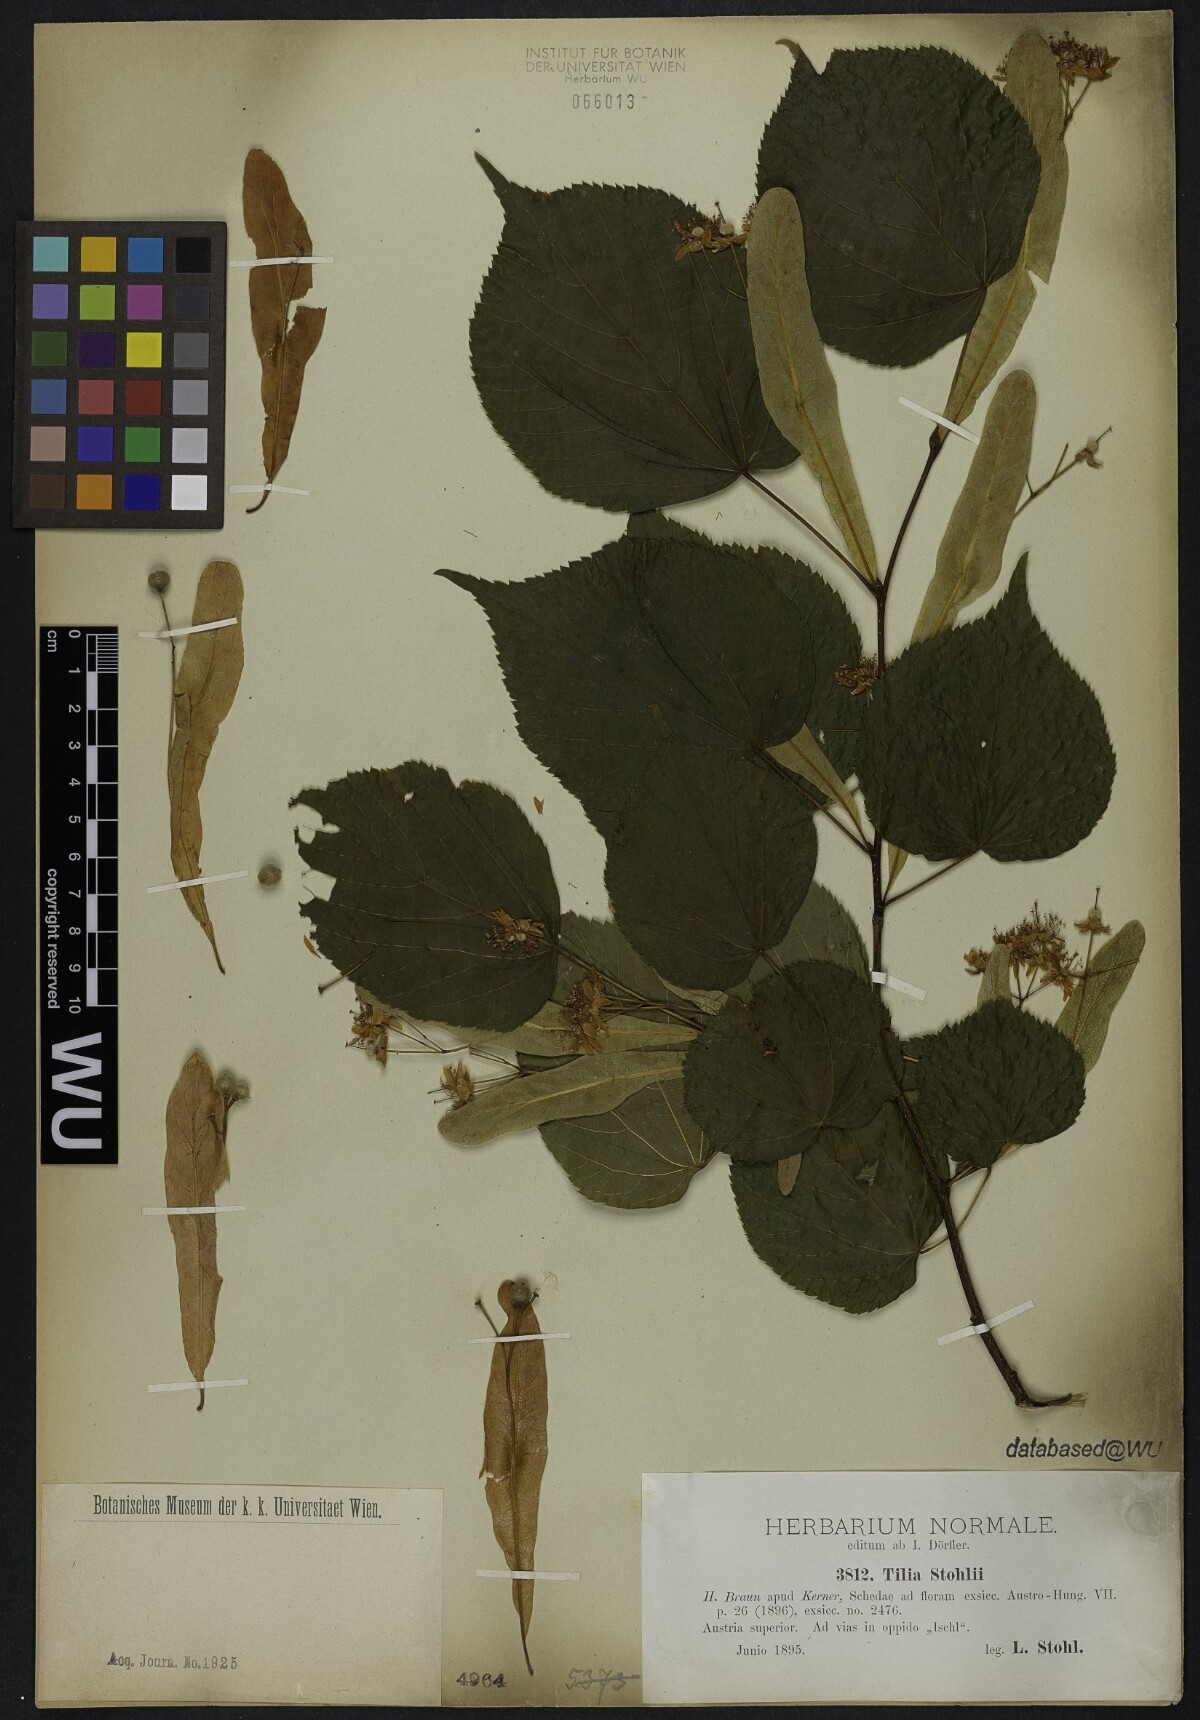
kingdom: Plantae
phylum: Tracheophyta
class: Magnoliopsida
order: Malvales
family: Malvaceae
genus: Tilia
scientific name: Tilia stohlii
